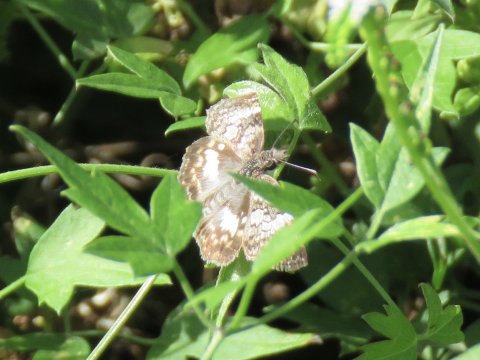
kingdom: Animalia
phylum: Arthropoda
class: Insecta
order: Lepidoptera
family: Hesperiidae
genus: Chiomara
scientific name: Chiomara asychis
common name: White-patched Skipper
